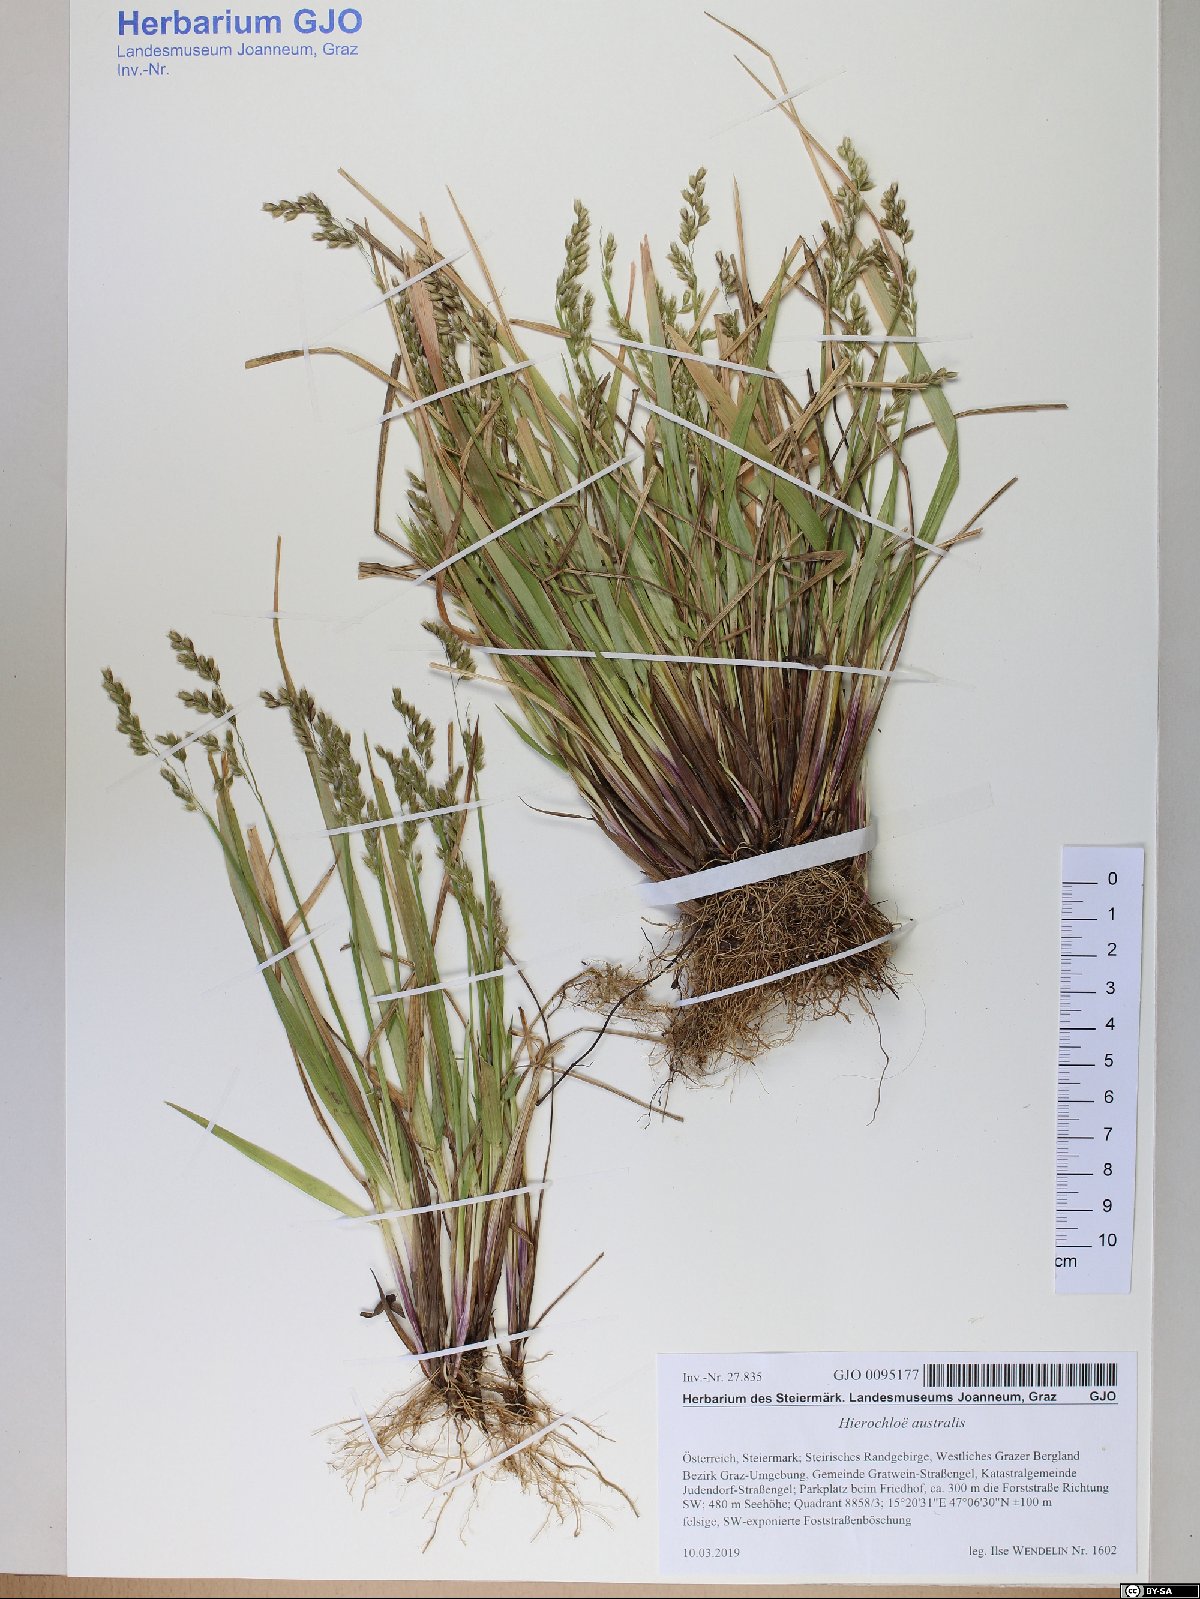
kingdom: Plantae
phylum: Tracheophyta
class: Liliopsida
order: Poales
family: Poaceae
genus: Anthoxanthum
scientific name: Anthoxanthum australe
